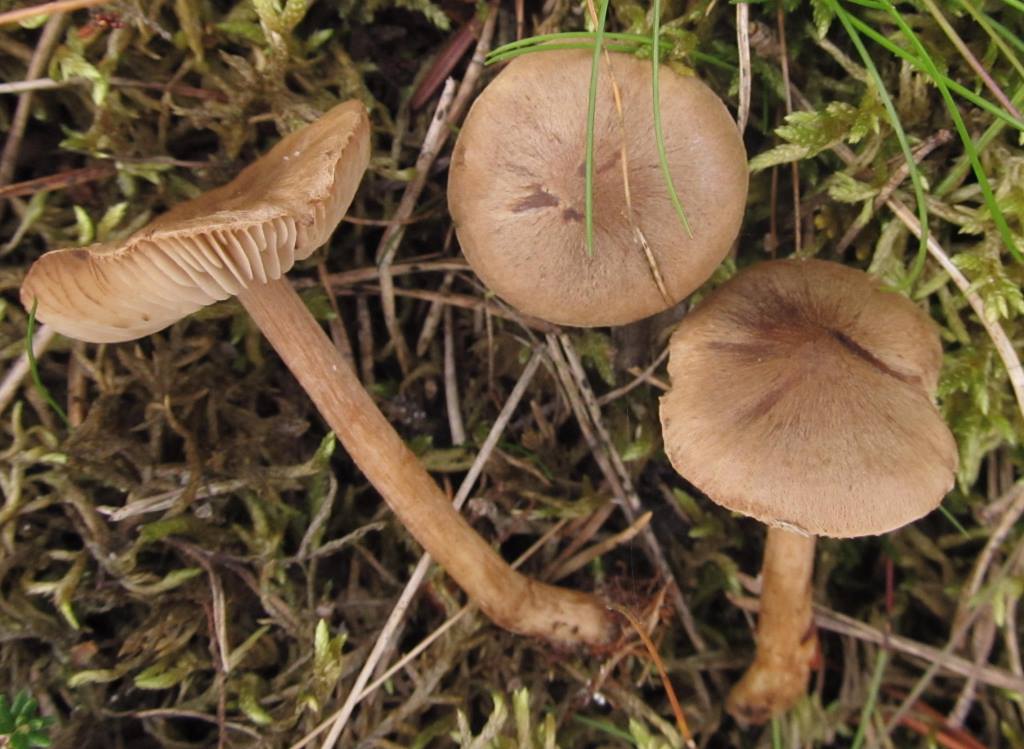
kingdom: Fungi
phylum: Basidiomycota
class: Agaricomycetes
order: Agaricales
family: Inocybaceae
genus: Inocybe
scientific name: Inocybe soluta
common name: lysbladet trævlhat
